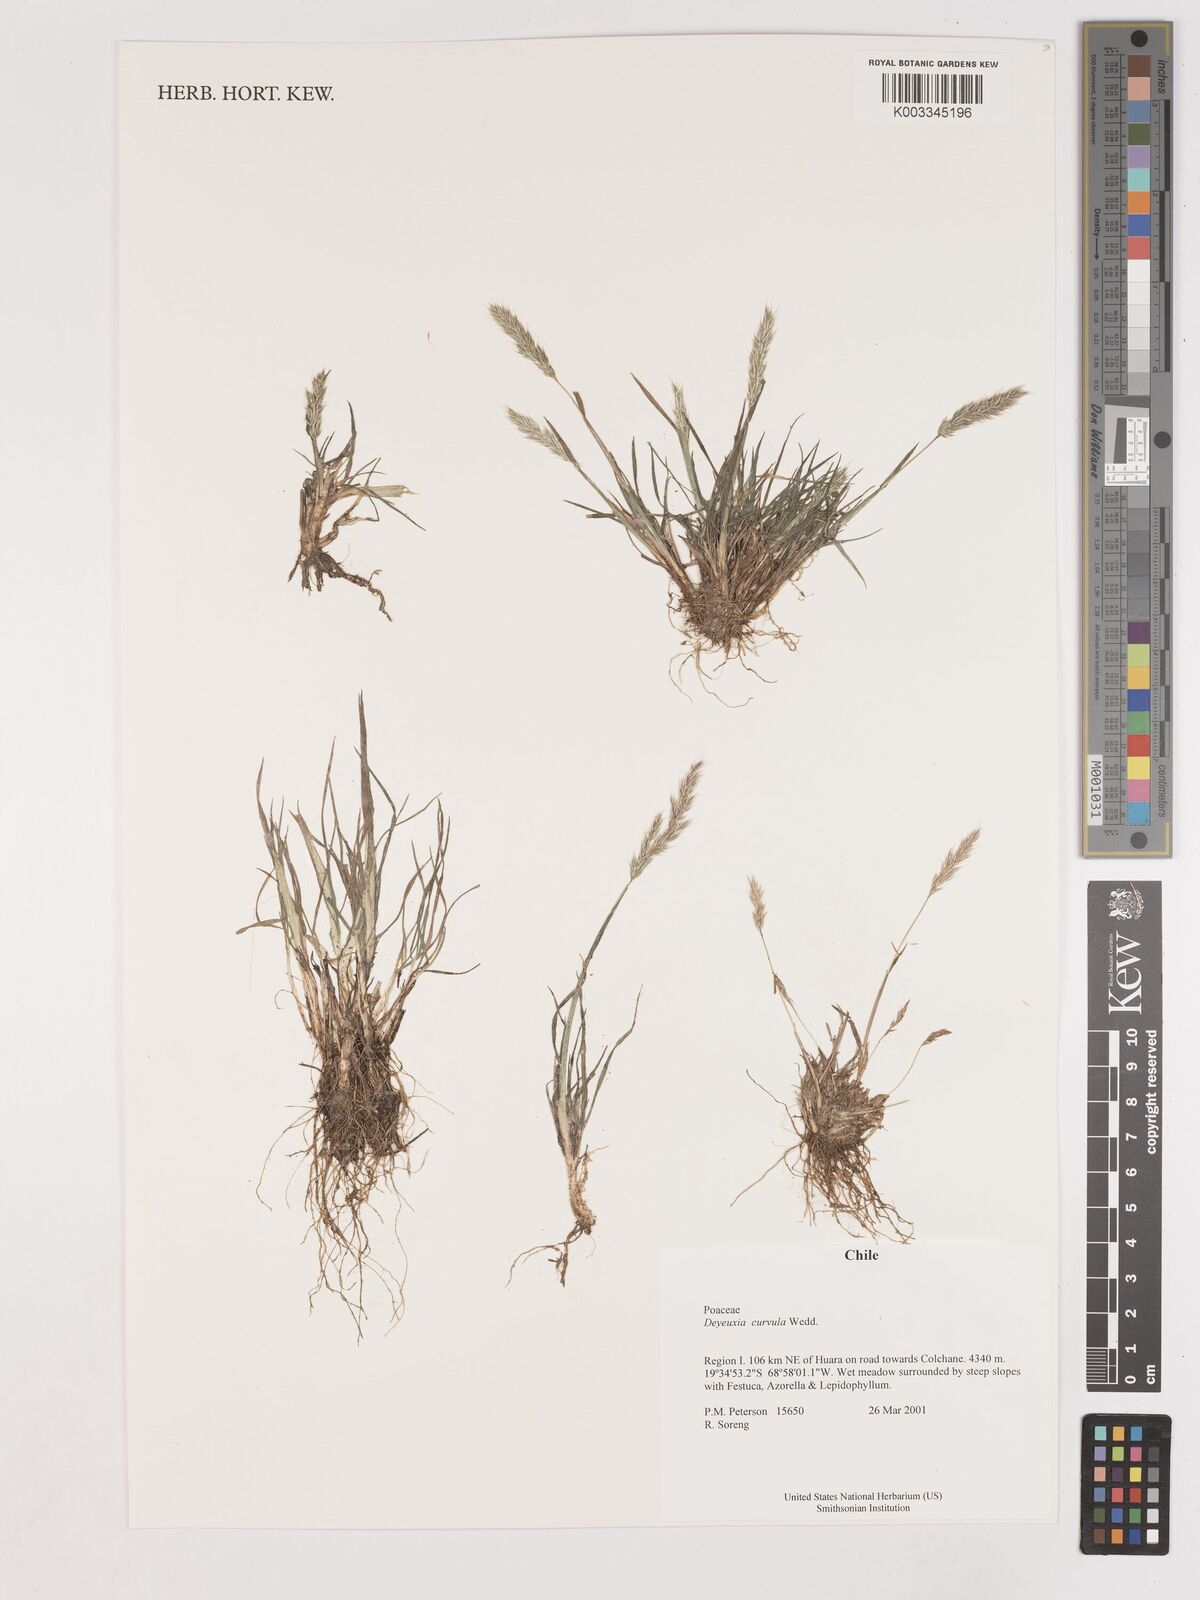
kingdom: Plantae
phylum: Tracheophyta
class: Liliopsida
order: Poales
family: Poaceae
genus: Cinnagrostis
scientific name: Cinnagrostis curvula
